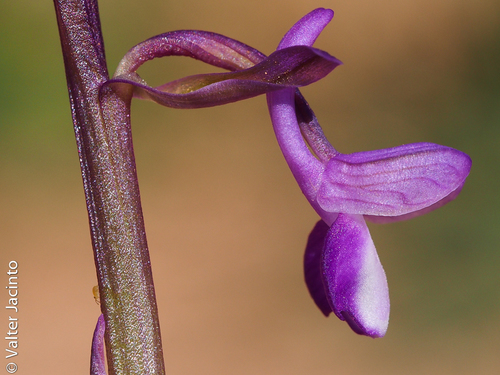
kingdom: Plantae
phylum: Tracheophyta
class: Liliopsida
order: Asparagales
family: Orchidaceae
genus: Anacamptis
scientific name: Anacamptis morio
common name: Green-winged orchid
